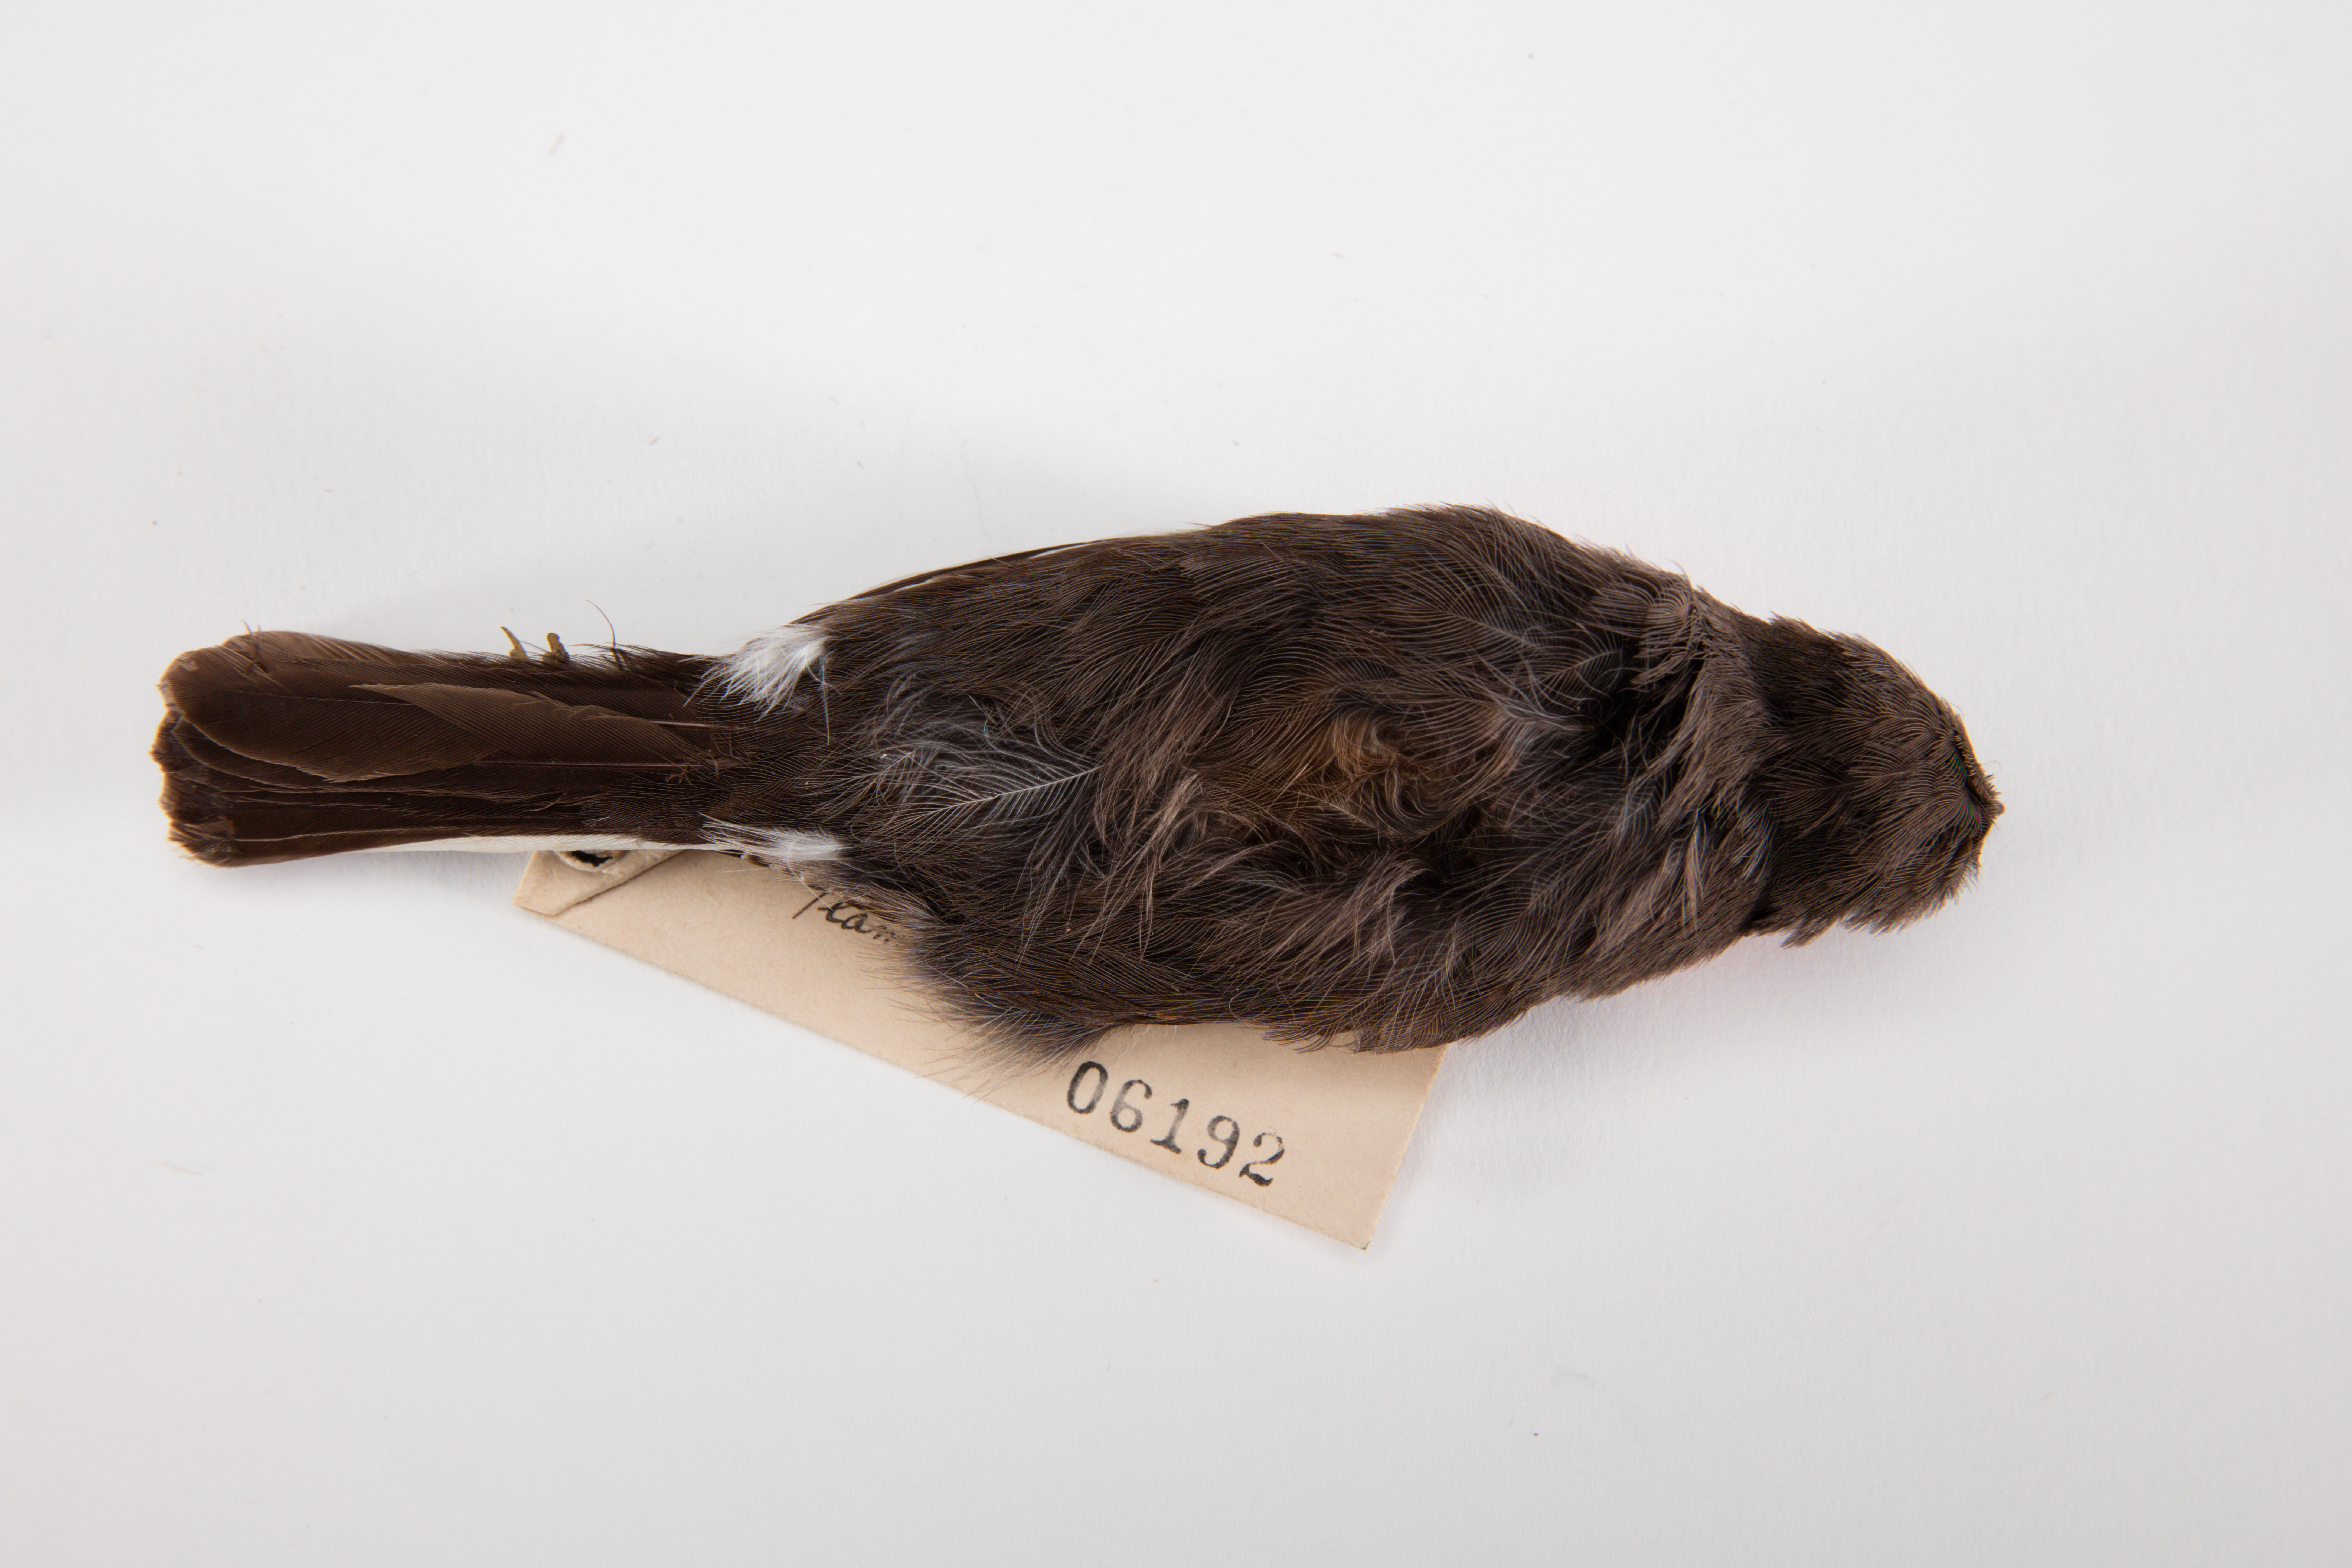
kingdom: Animalia
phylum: Chordata
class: Aves
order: Passeriformes
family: Petroicidae
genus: Petroica
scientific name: Petroica phoenicea
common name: Flame robin
